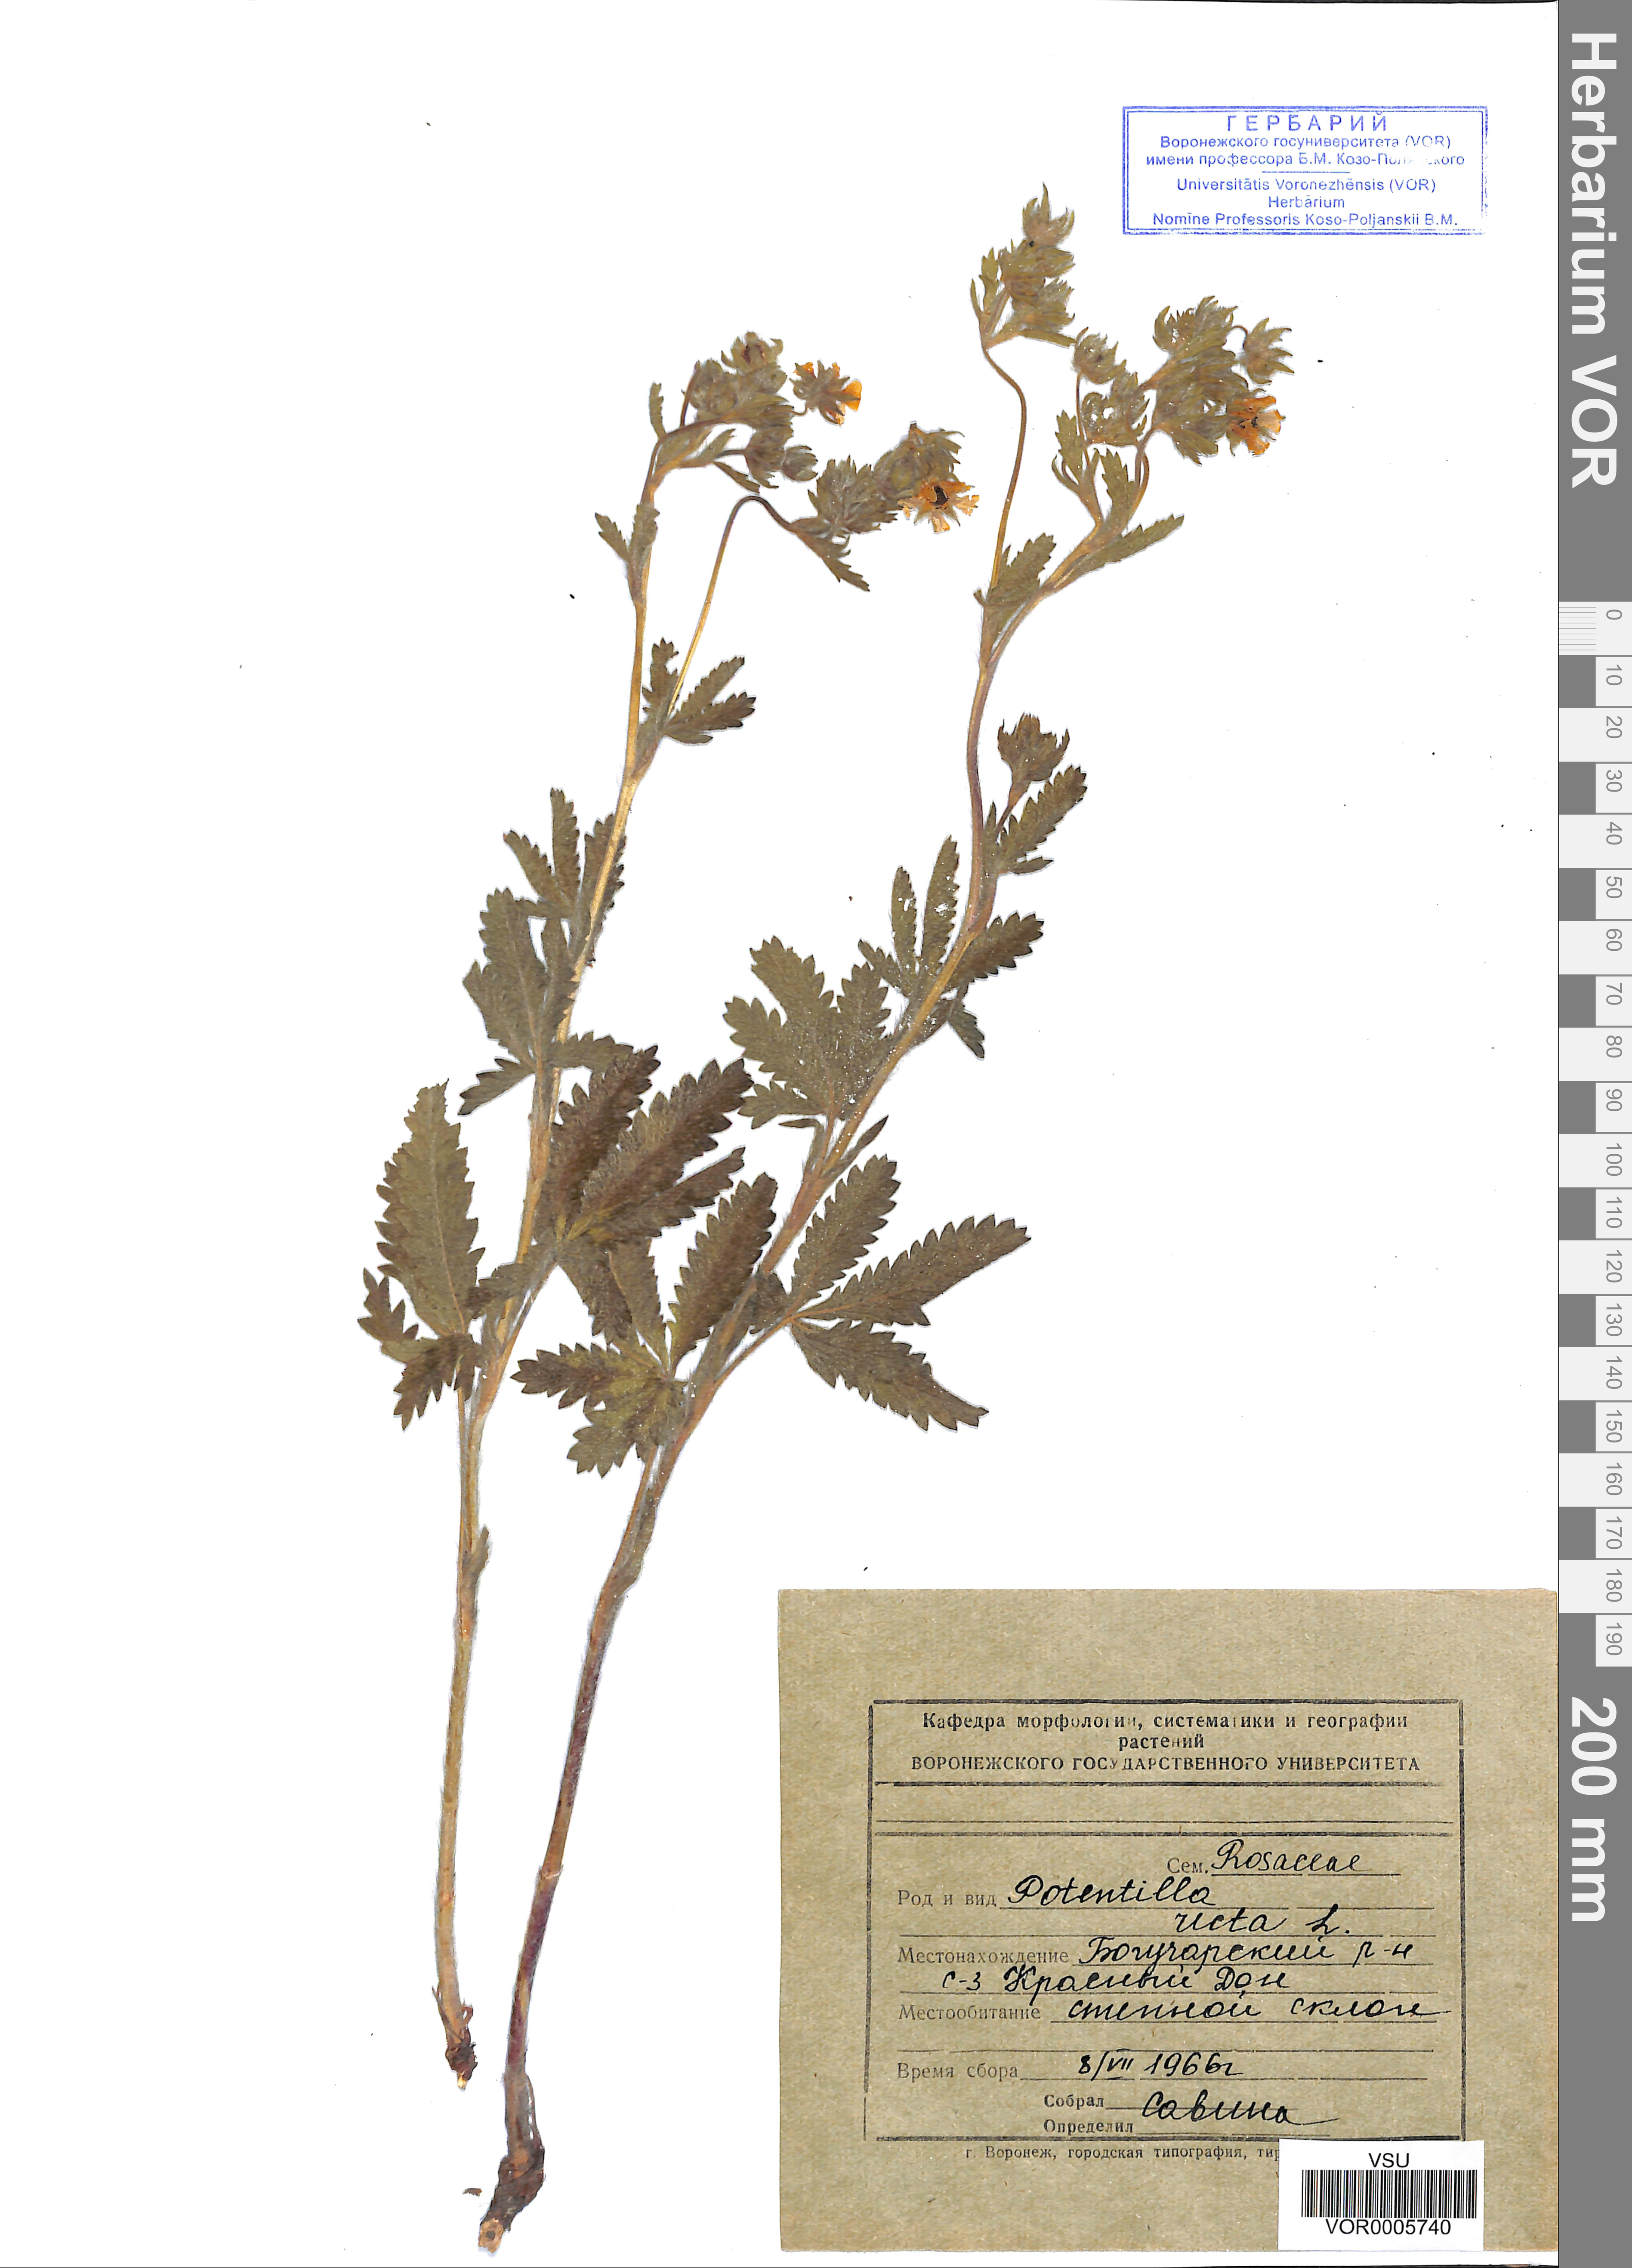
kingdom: Plantae
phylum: Tracheophyta
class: Magnoliopsida
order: Rosales
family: Rosaceae
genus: Potentilla
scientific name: Potentilla recta
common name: Sulphur cinquefoil
